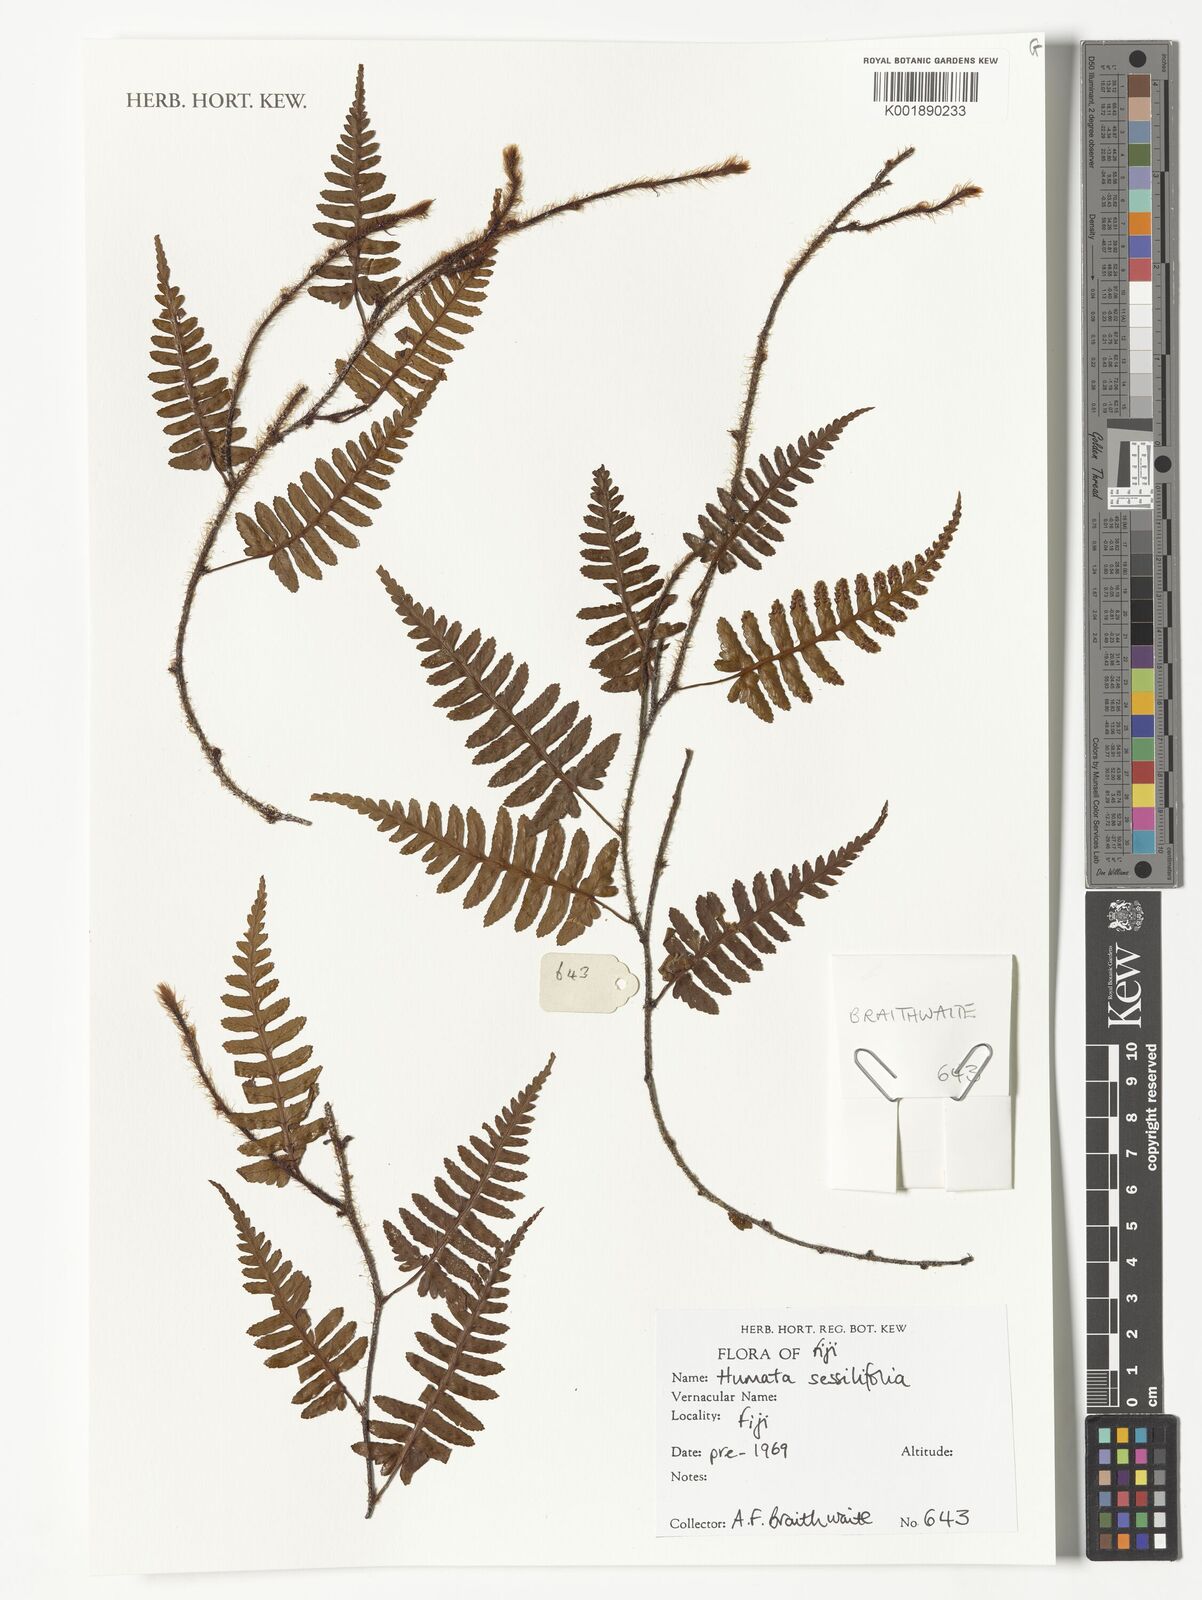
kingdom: Plantae
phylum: Tracheophyta
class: Polypodiopsida
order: Polypodiales
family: Davalliaceae
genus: Davallia
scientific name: Davallia sessilifolia
